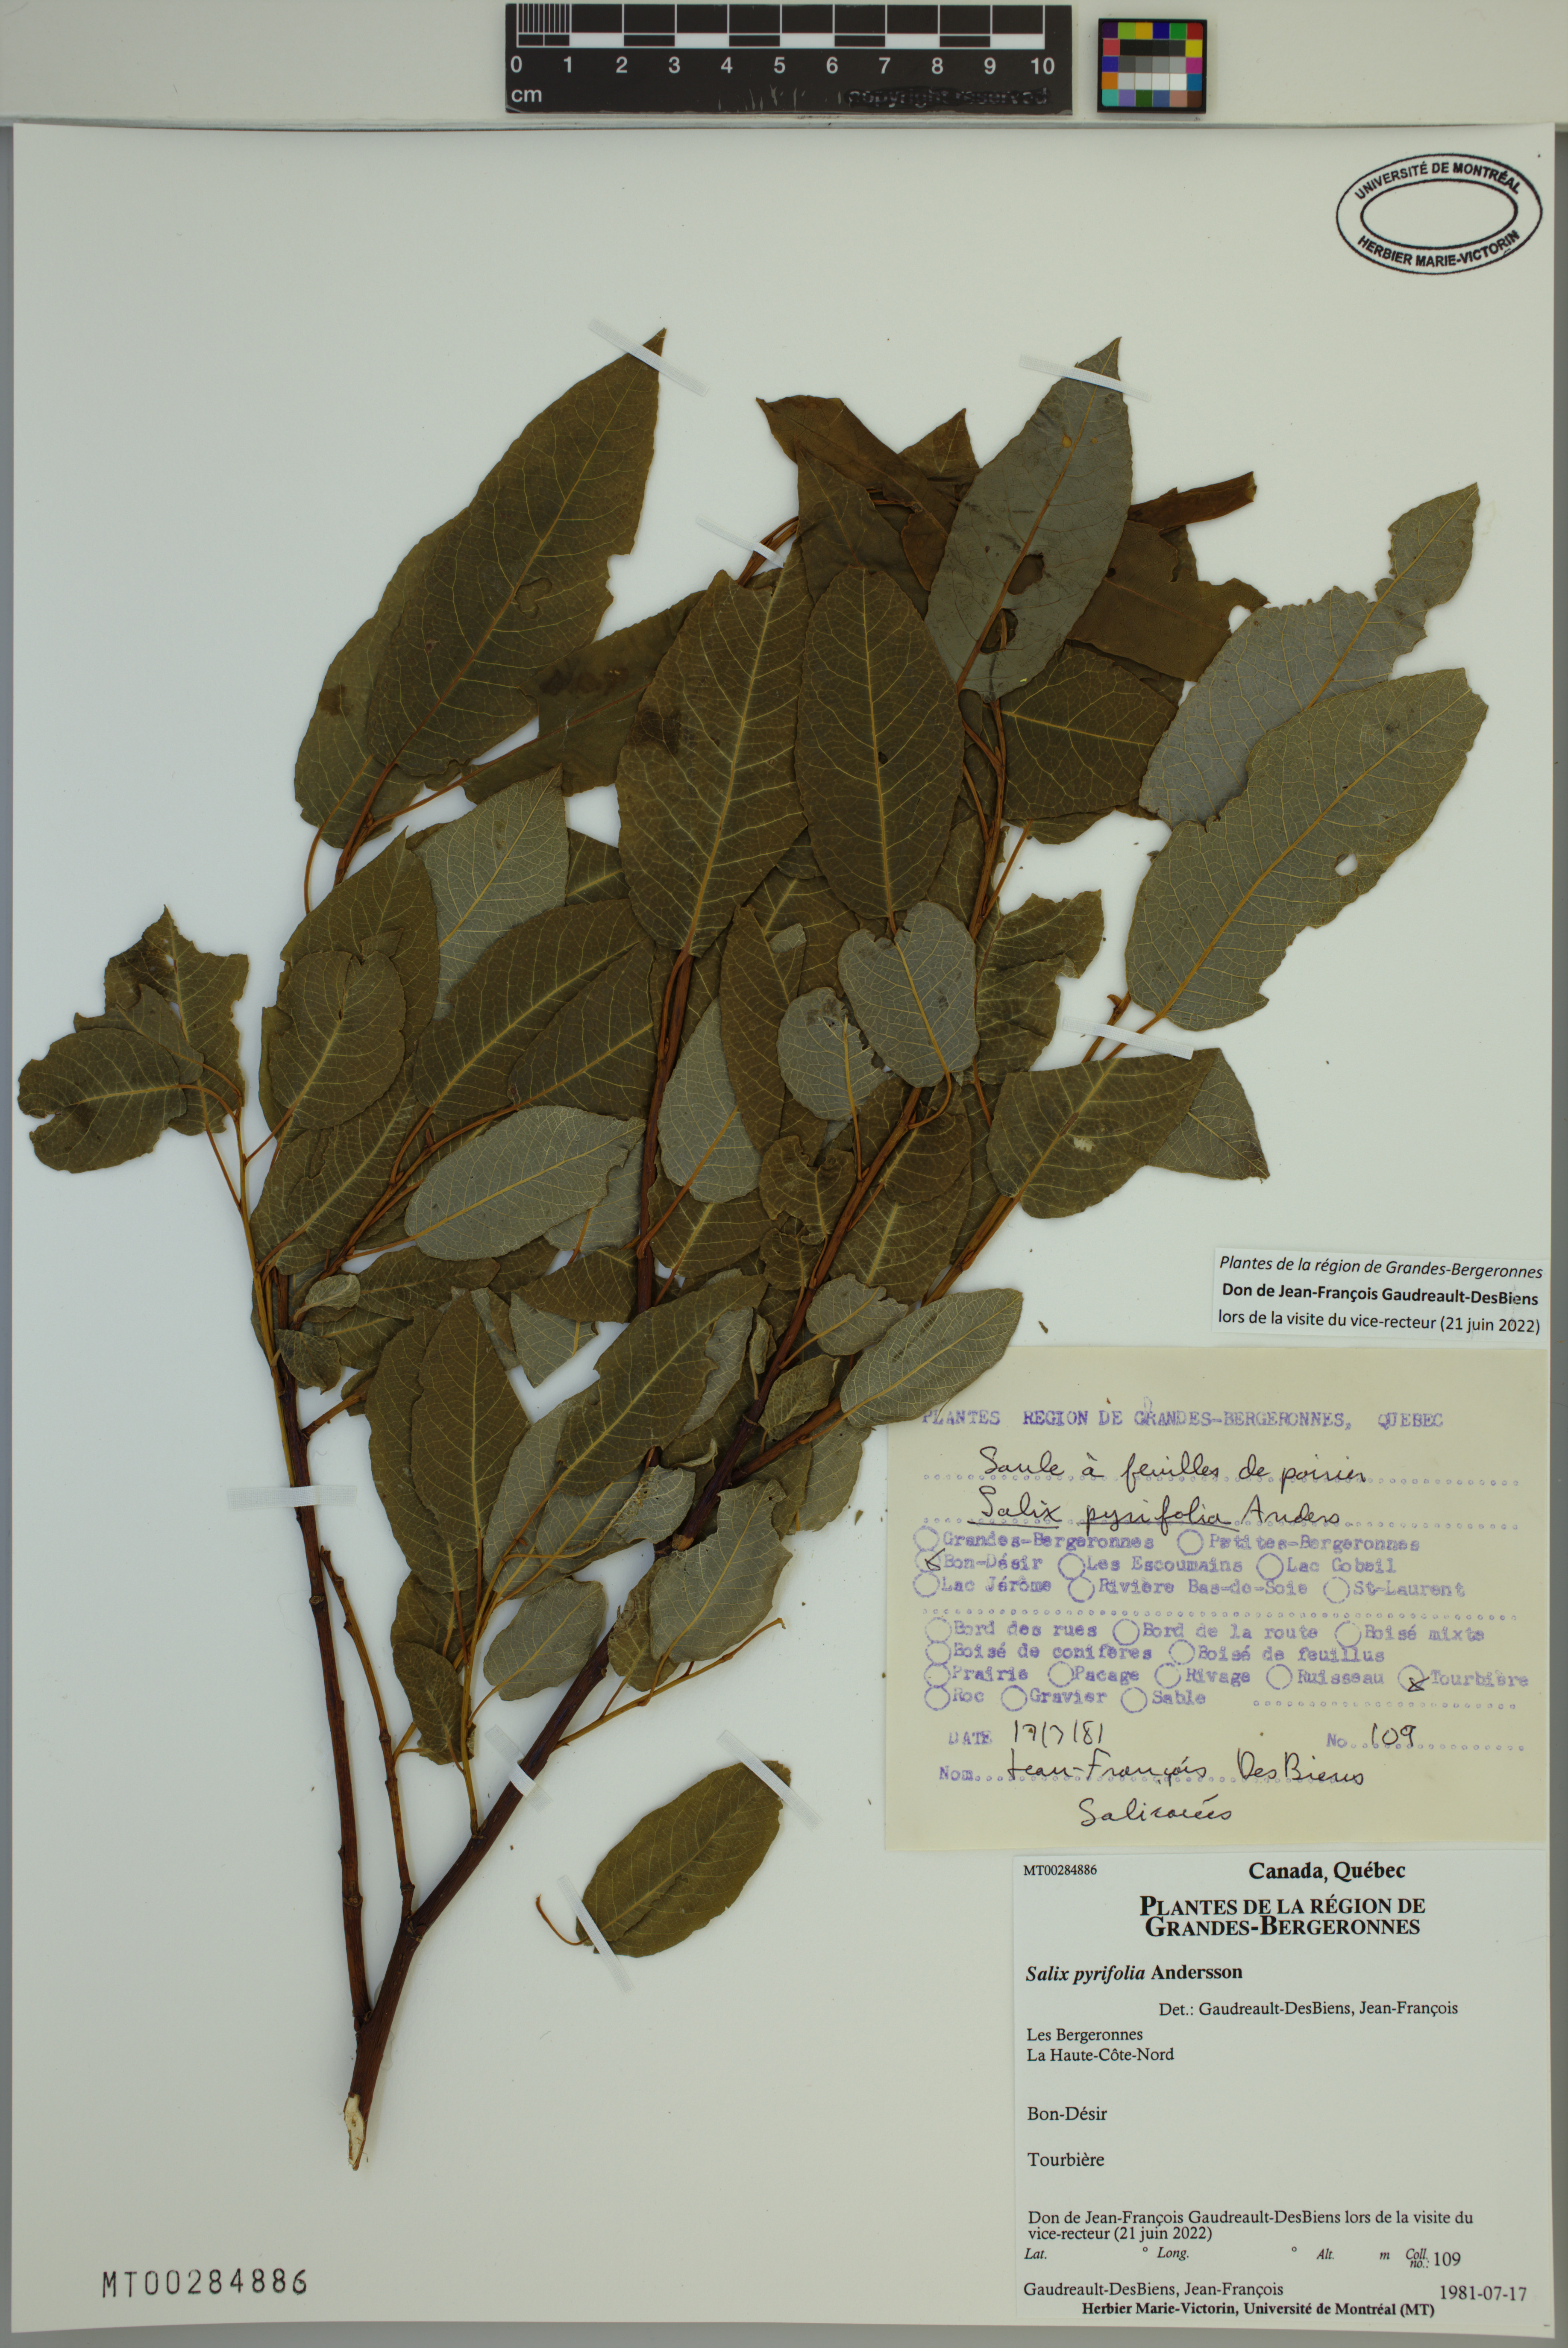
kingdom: Plantae
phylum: Tracheophyta
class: Magnoliopsida
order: Malpighiales
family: Salicaceae
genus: Salix
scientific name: Salix pyrifolia
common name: Balsam willow
